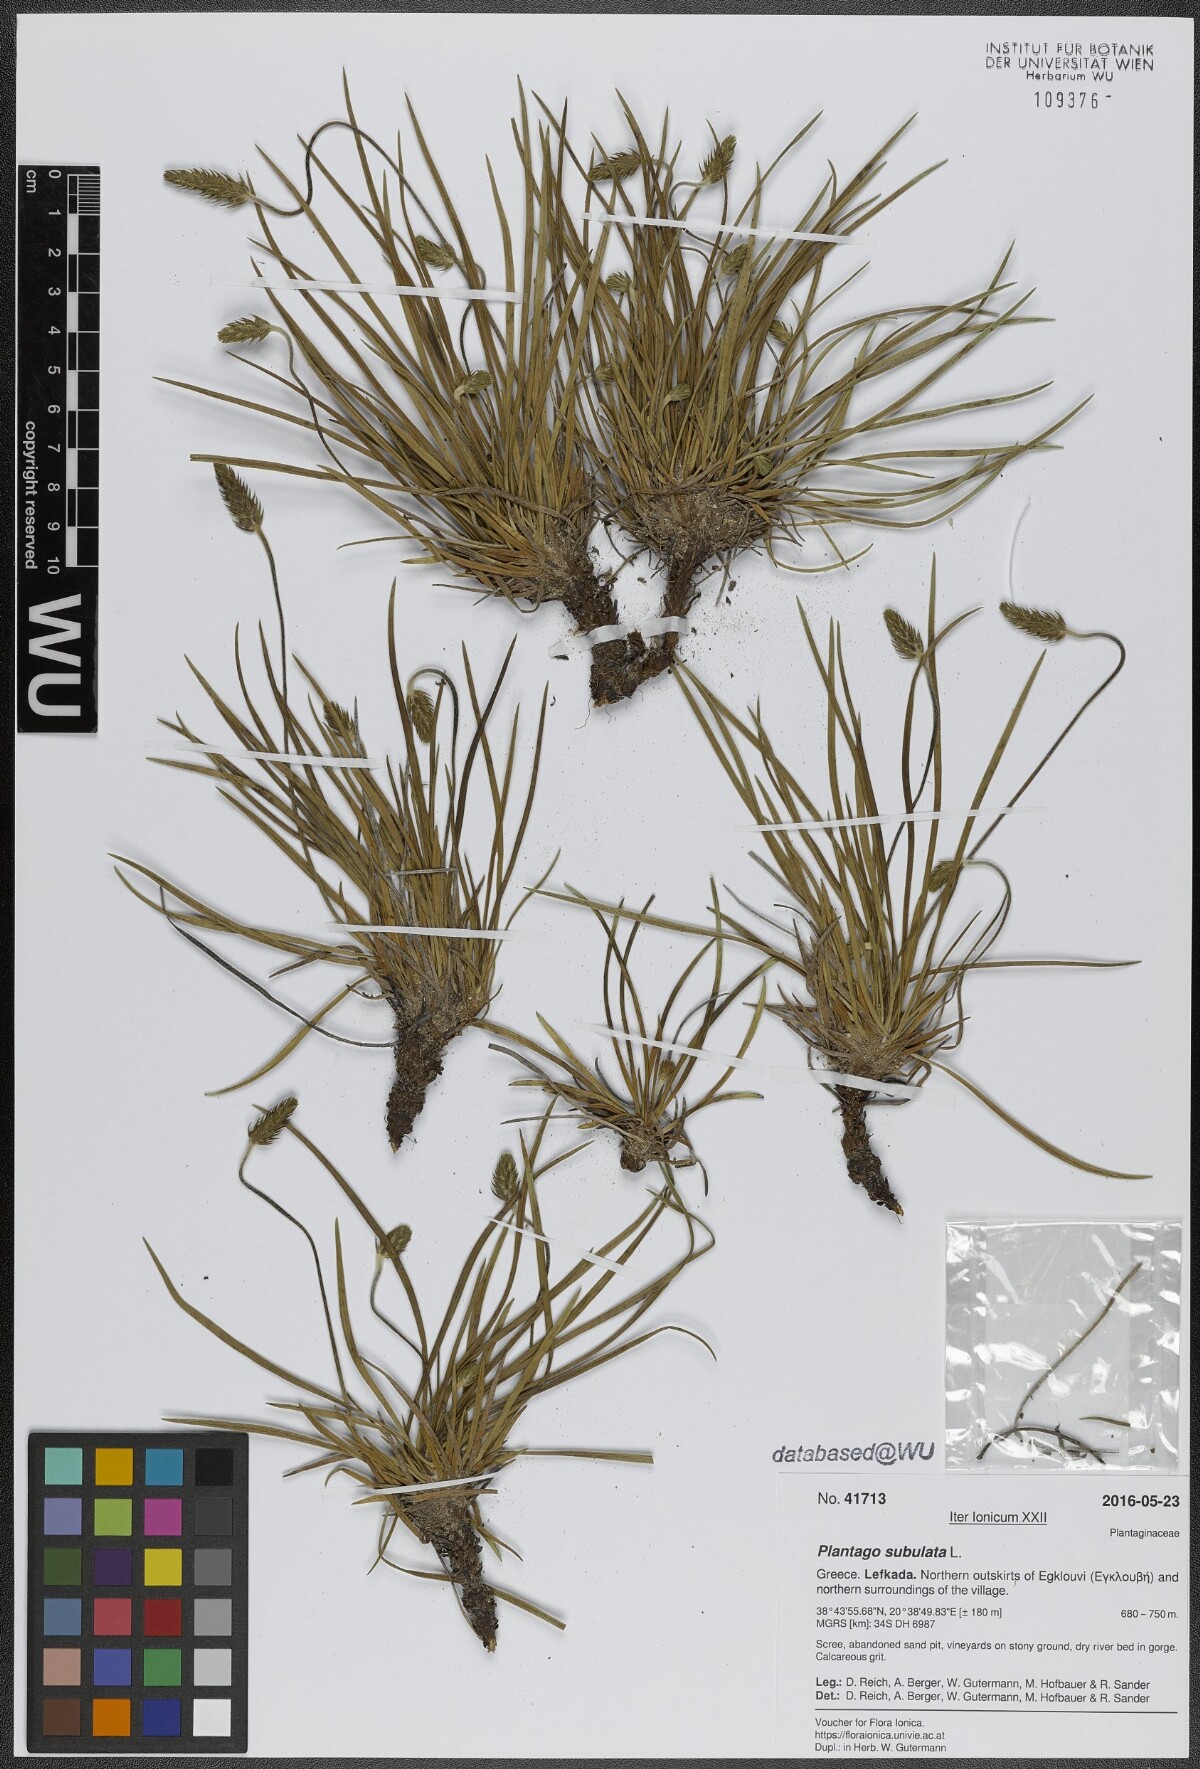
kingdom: Plantae
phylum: Tracheophyta
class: Magnoliopsida
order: Lamiales
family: Plantaginaceae
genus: Plantago
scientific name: Plantago subulata
